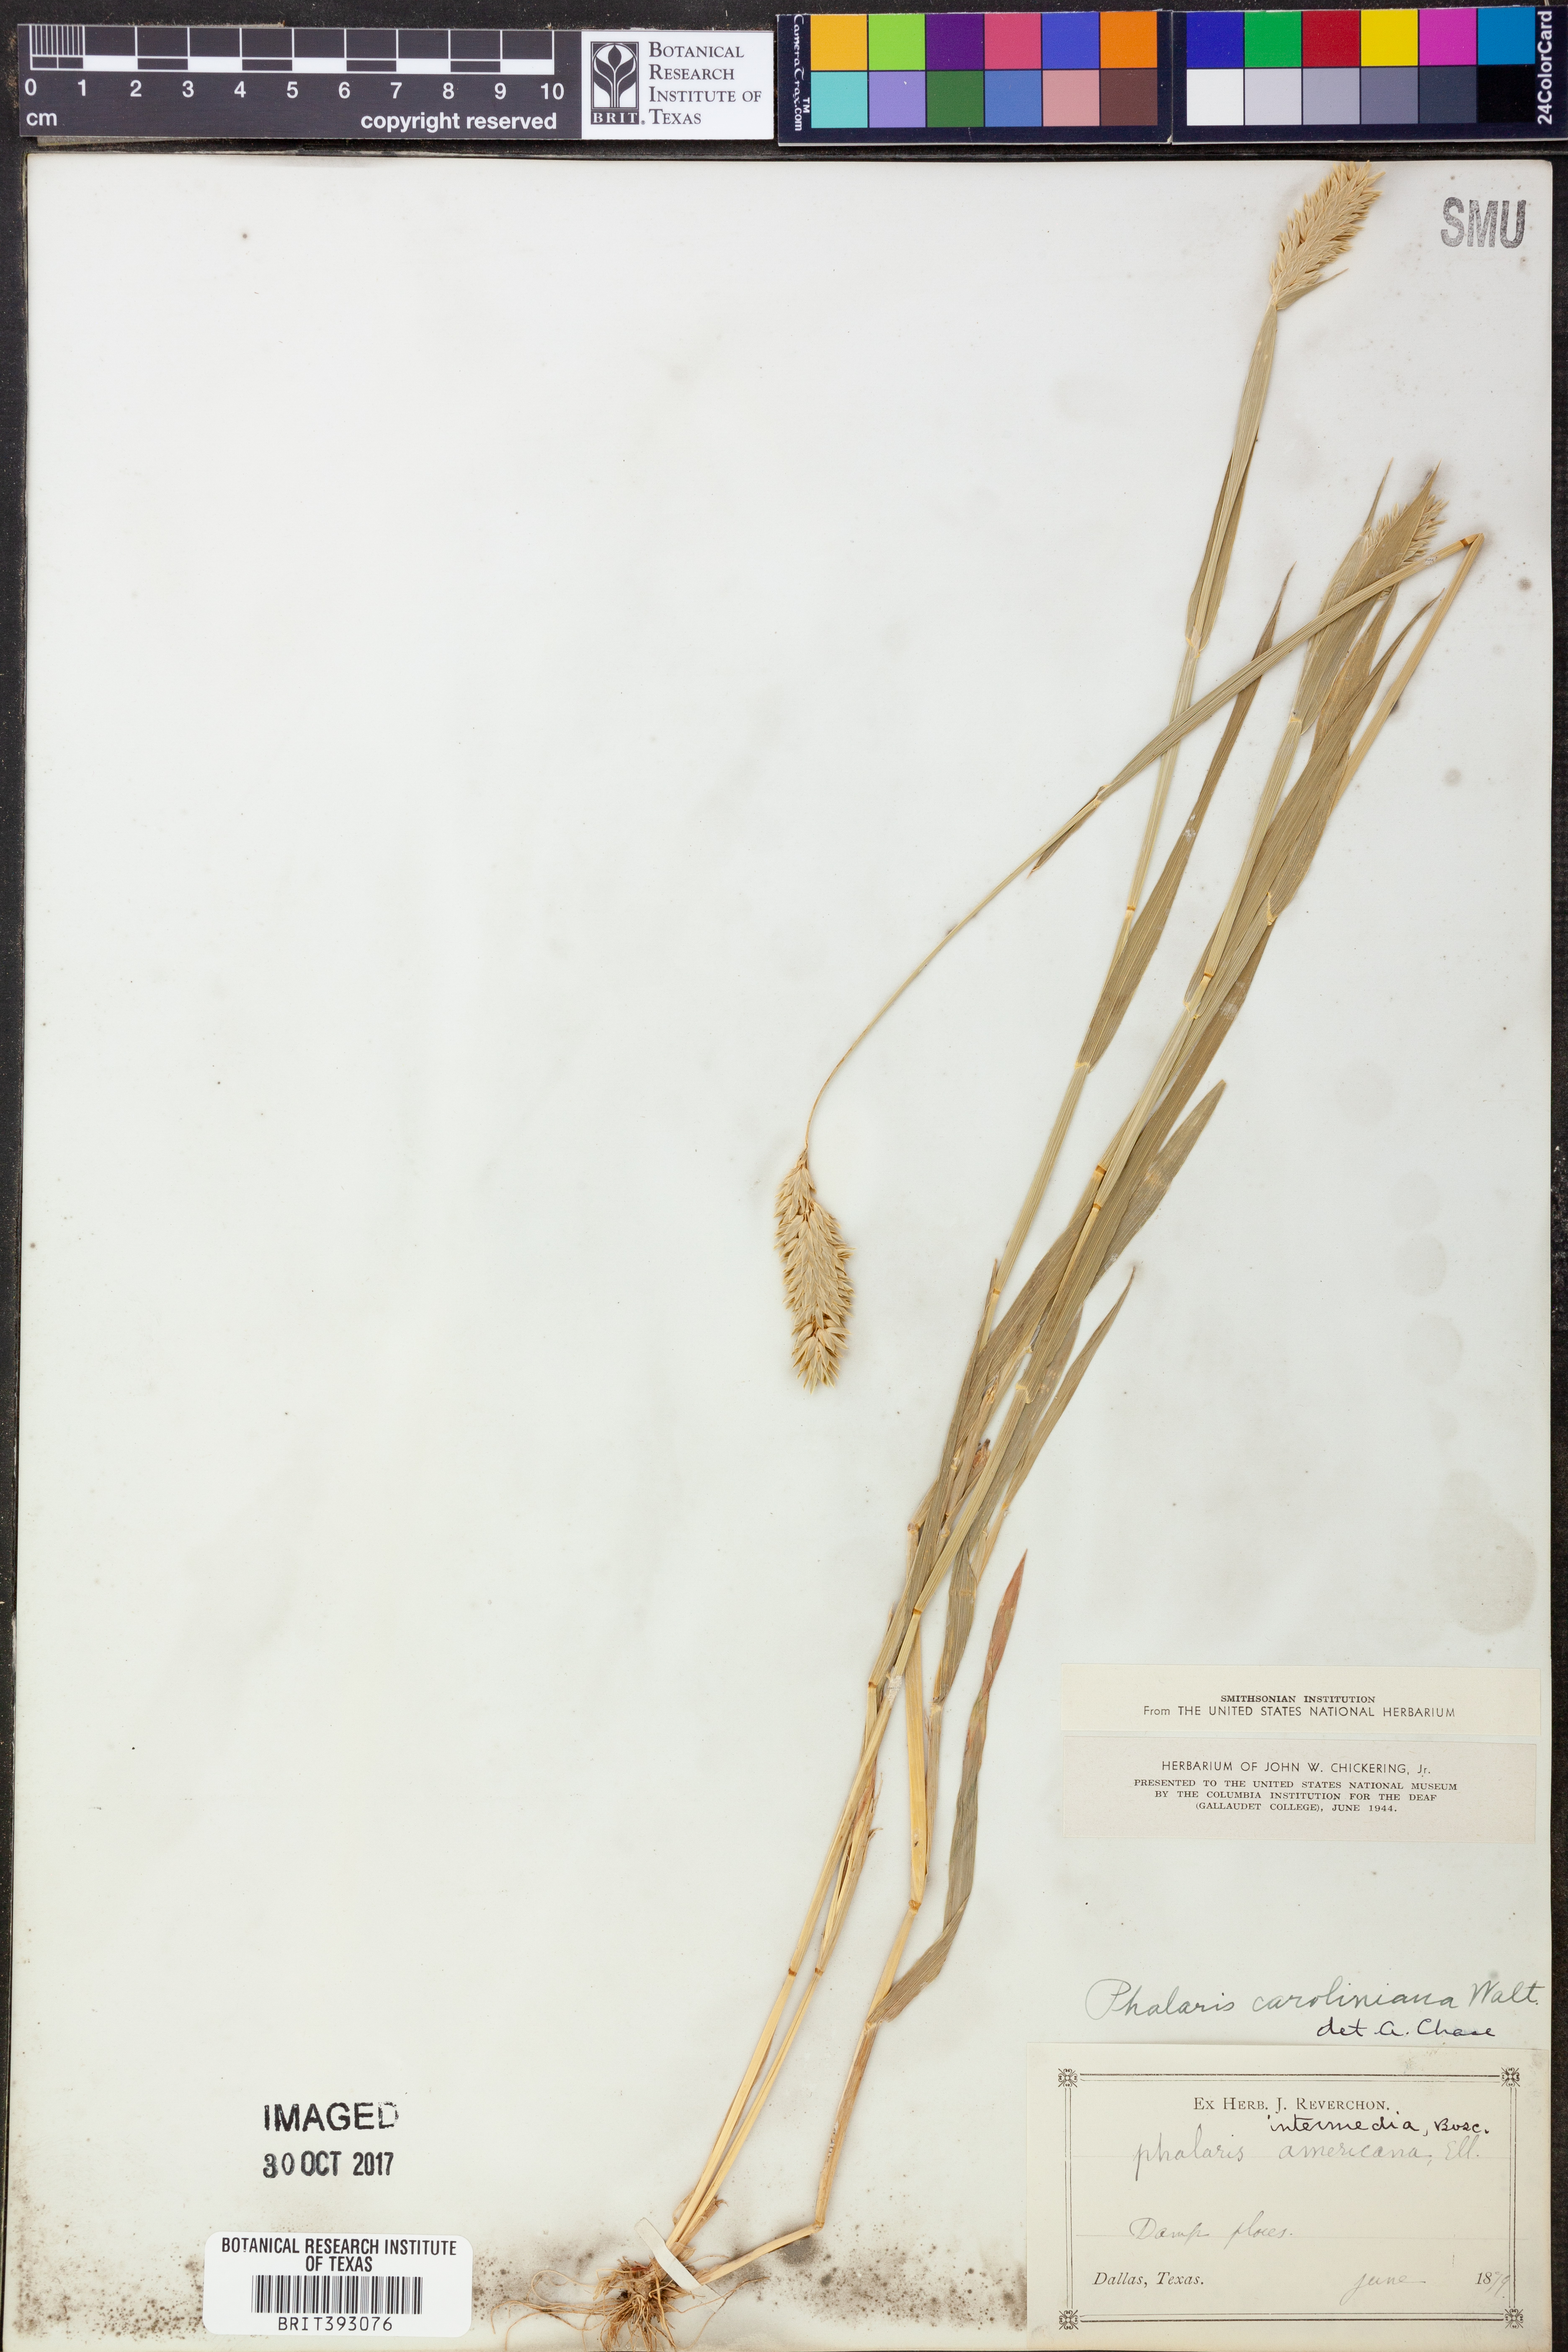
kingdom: Plantae
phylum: Tracheophyta
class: Liliopsida
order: Poales
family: Poaceae
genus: Phalaris
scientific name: Phalaris caroliniana
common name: May grass
